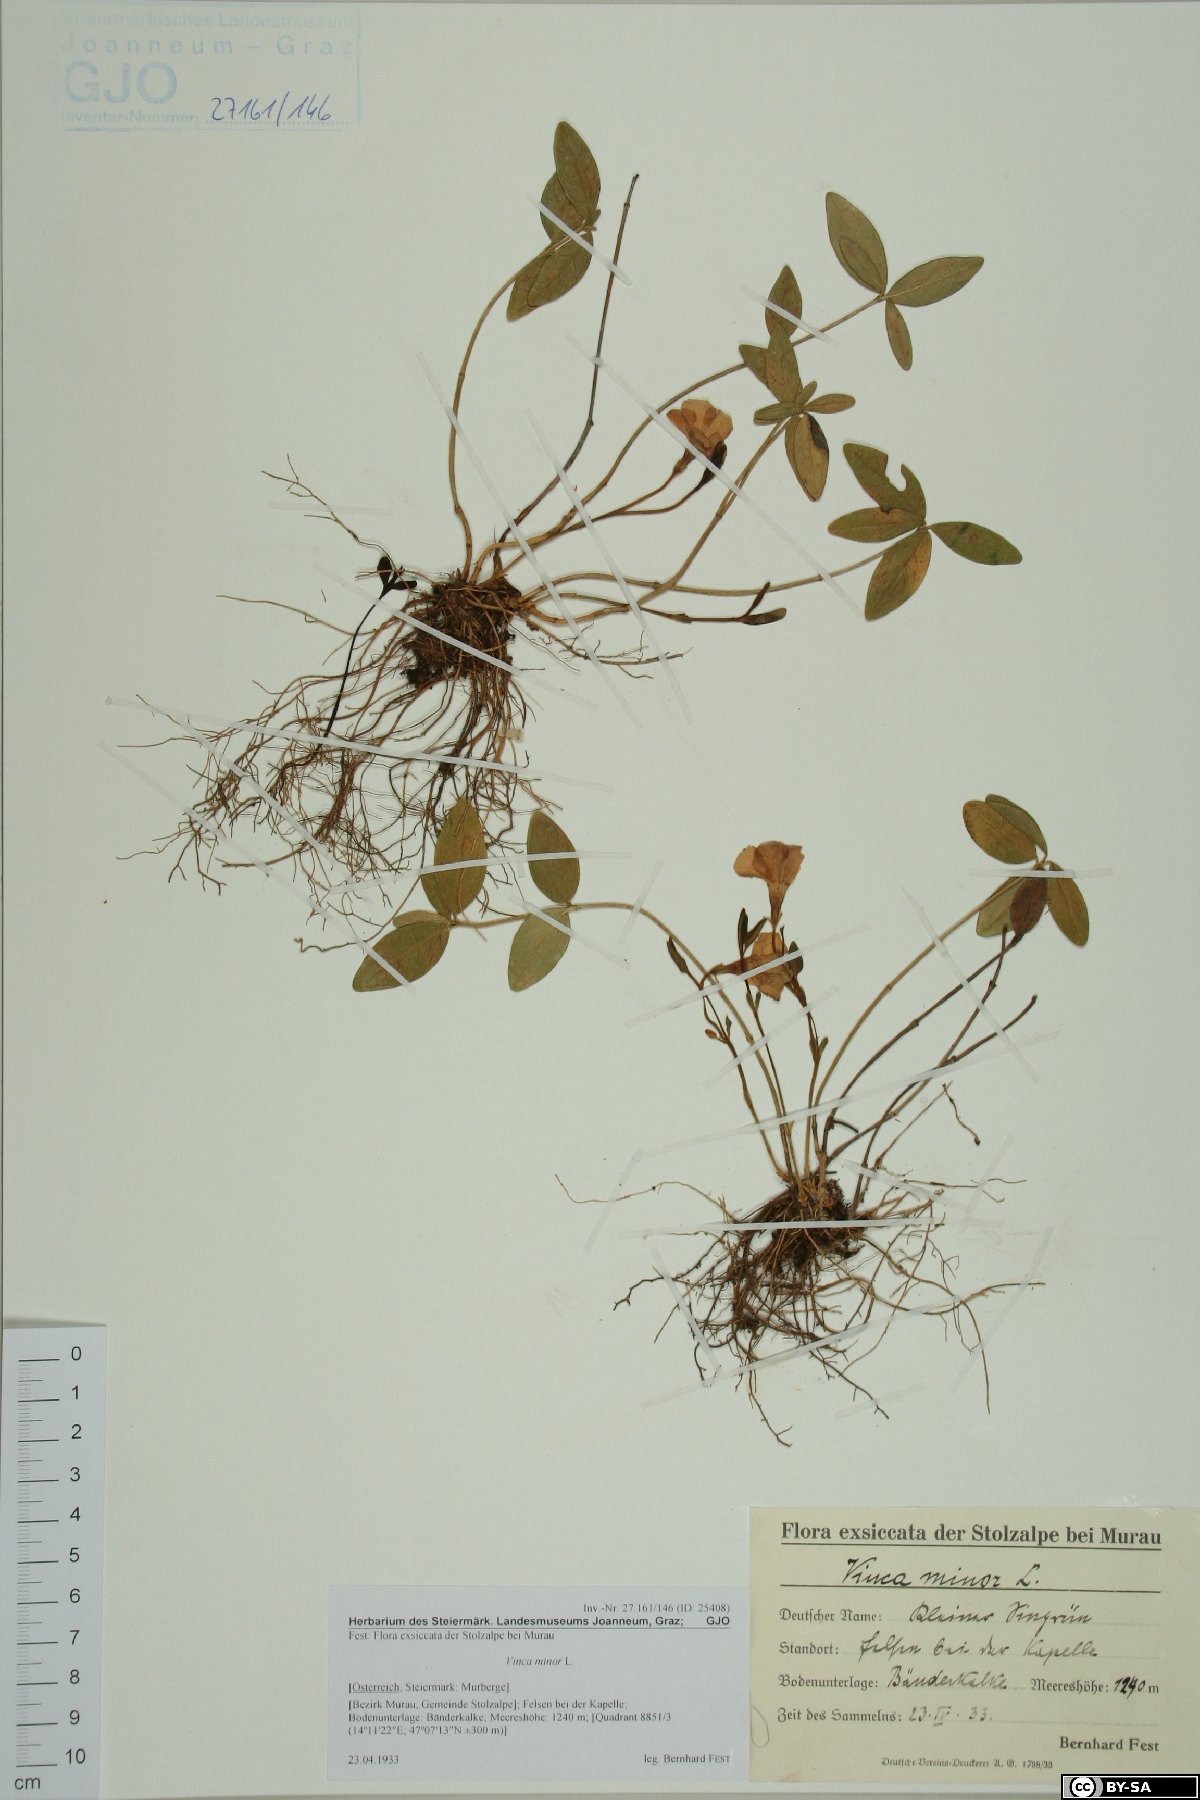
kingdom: Plantae
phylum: Tracheophyta
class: Magnoliopsida
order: Gentianales
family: Apocynaceae
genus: Vinca
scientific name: Vinca minor
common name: Lesser periwinkle
